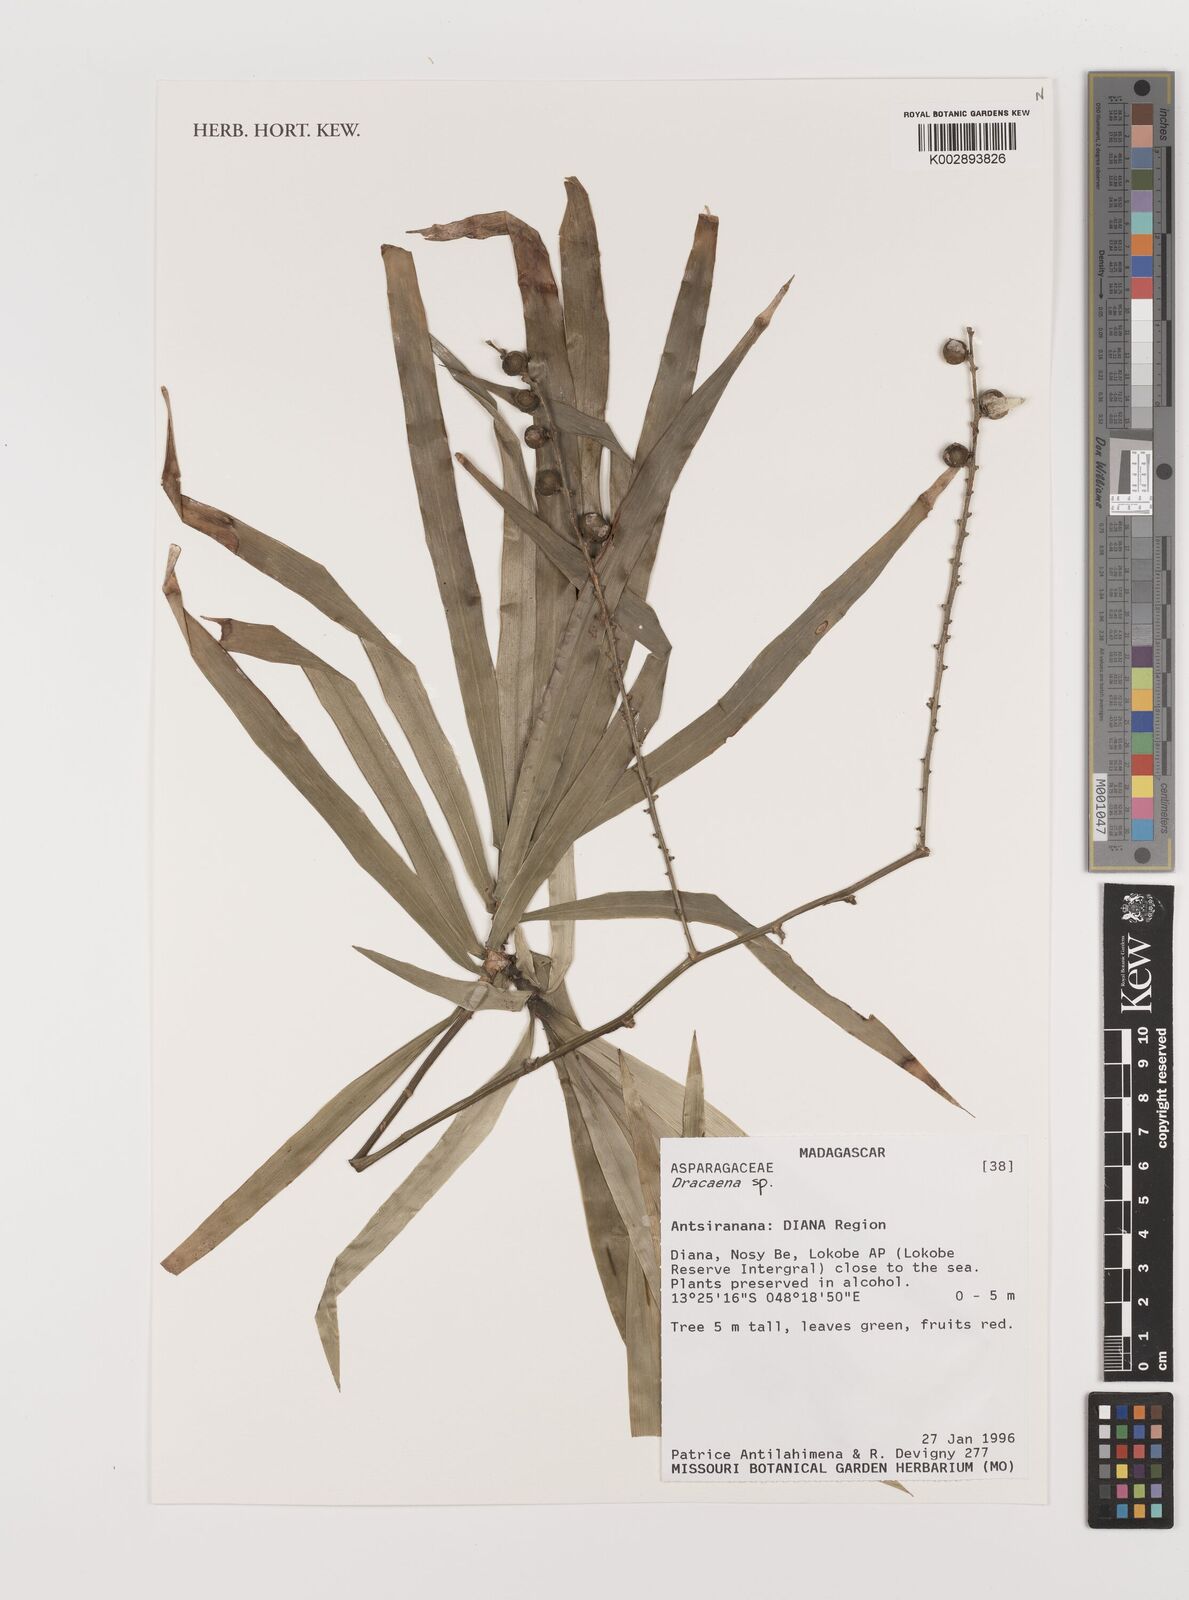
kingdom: Plantae
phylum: Tracheophyta
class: Liliopsida
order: Asparagales
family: Asparagaceae
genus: Dracaena
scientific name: Dracaena
